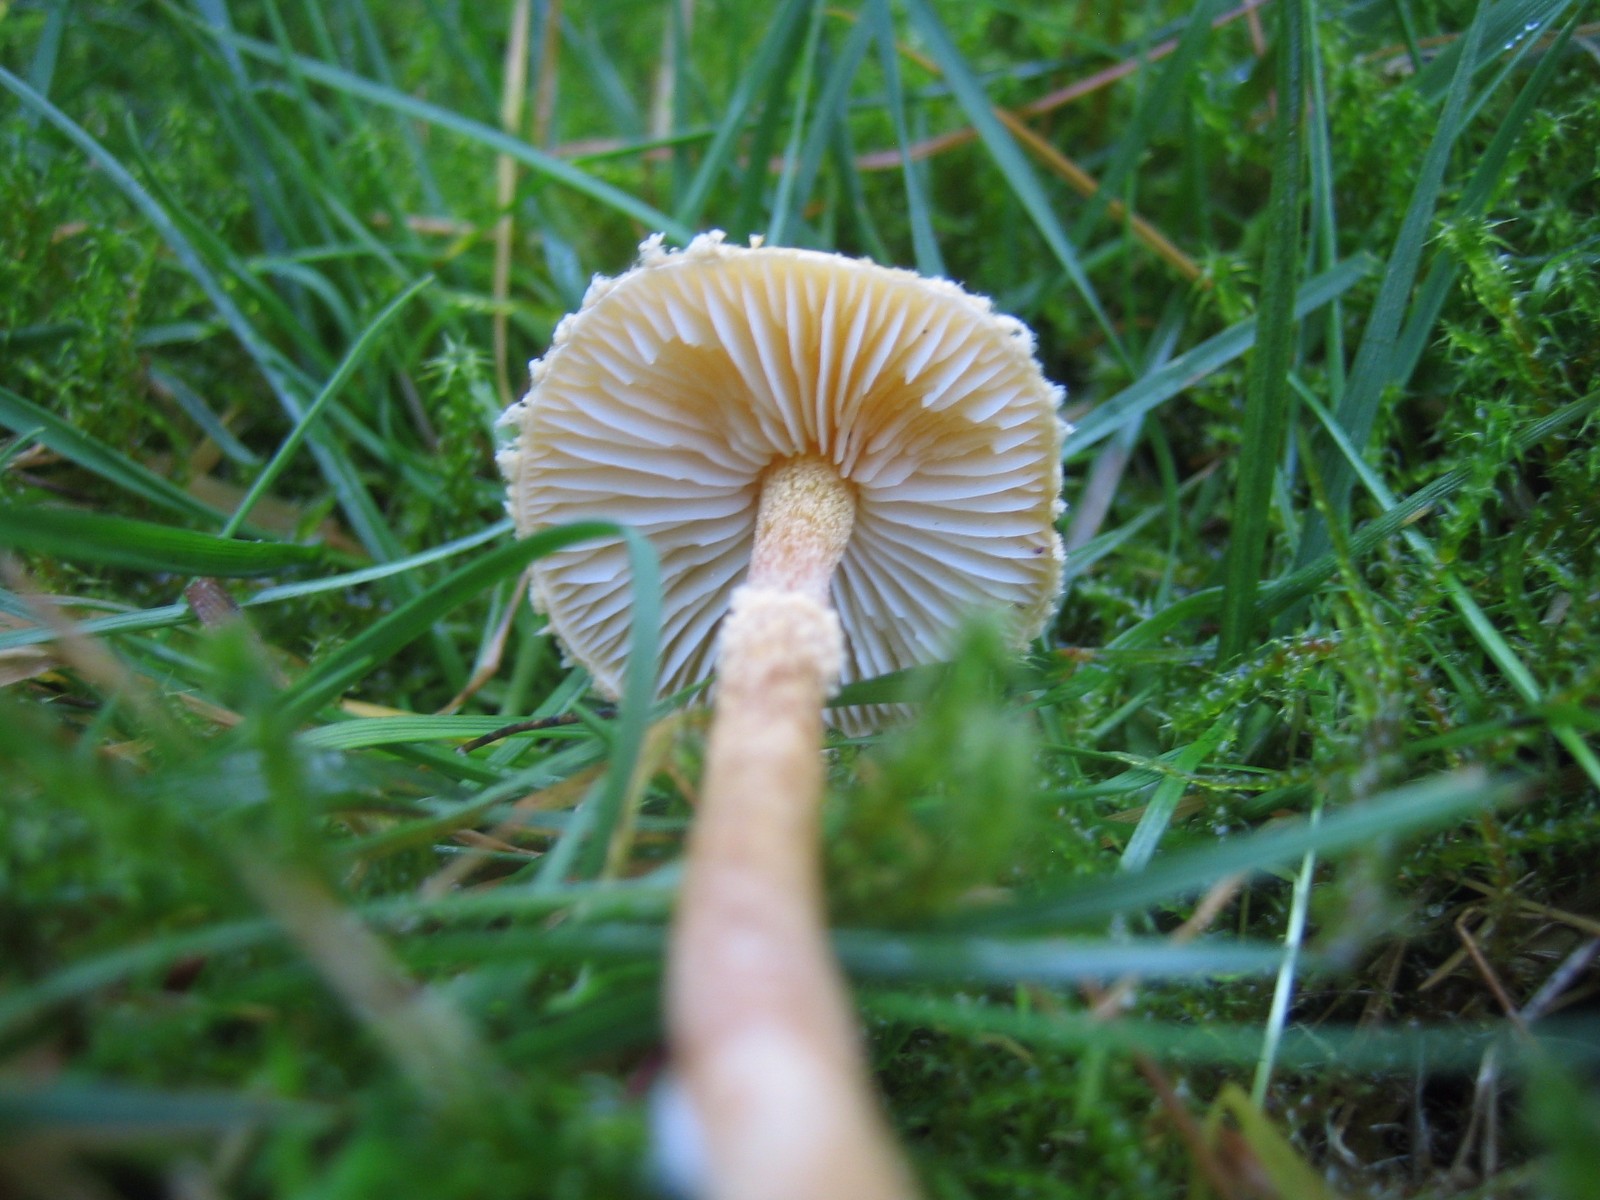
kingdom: Fungi
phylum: Basidiomycota
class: Agaricomycetes
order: Agaricales
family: Tricholomataceae
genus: Cystoderma
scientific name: Cystoderma amianthinum
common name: okkergul grynhat
